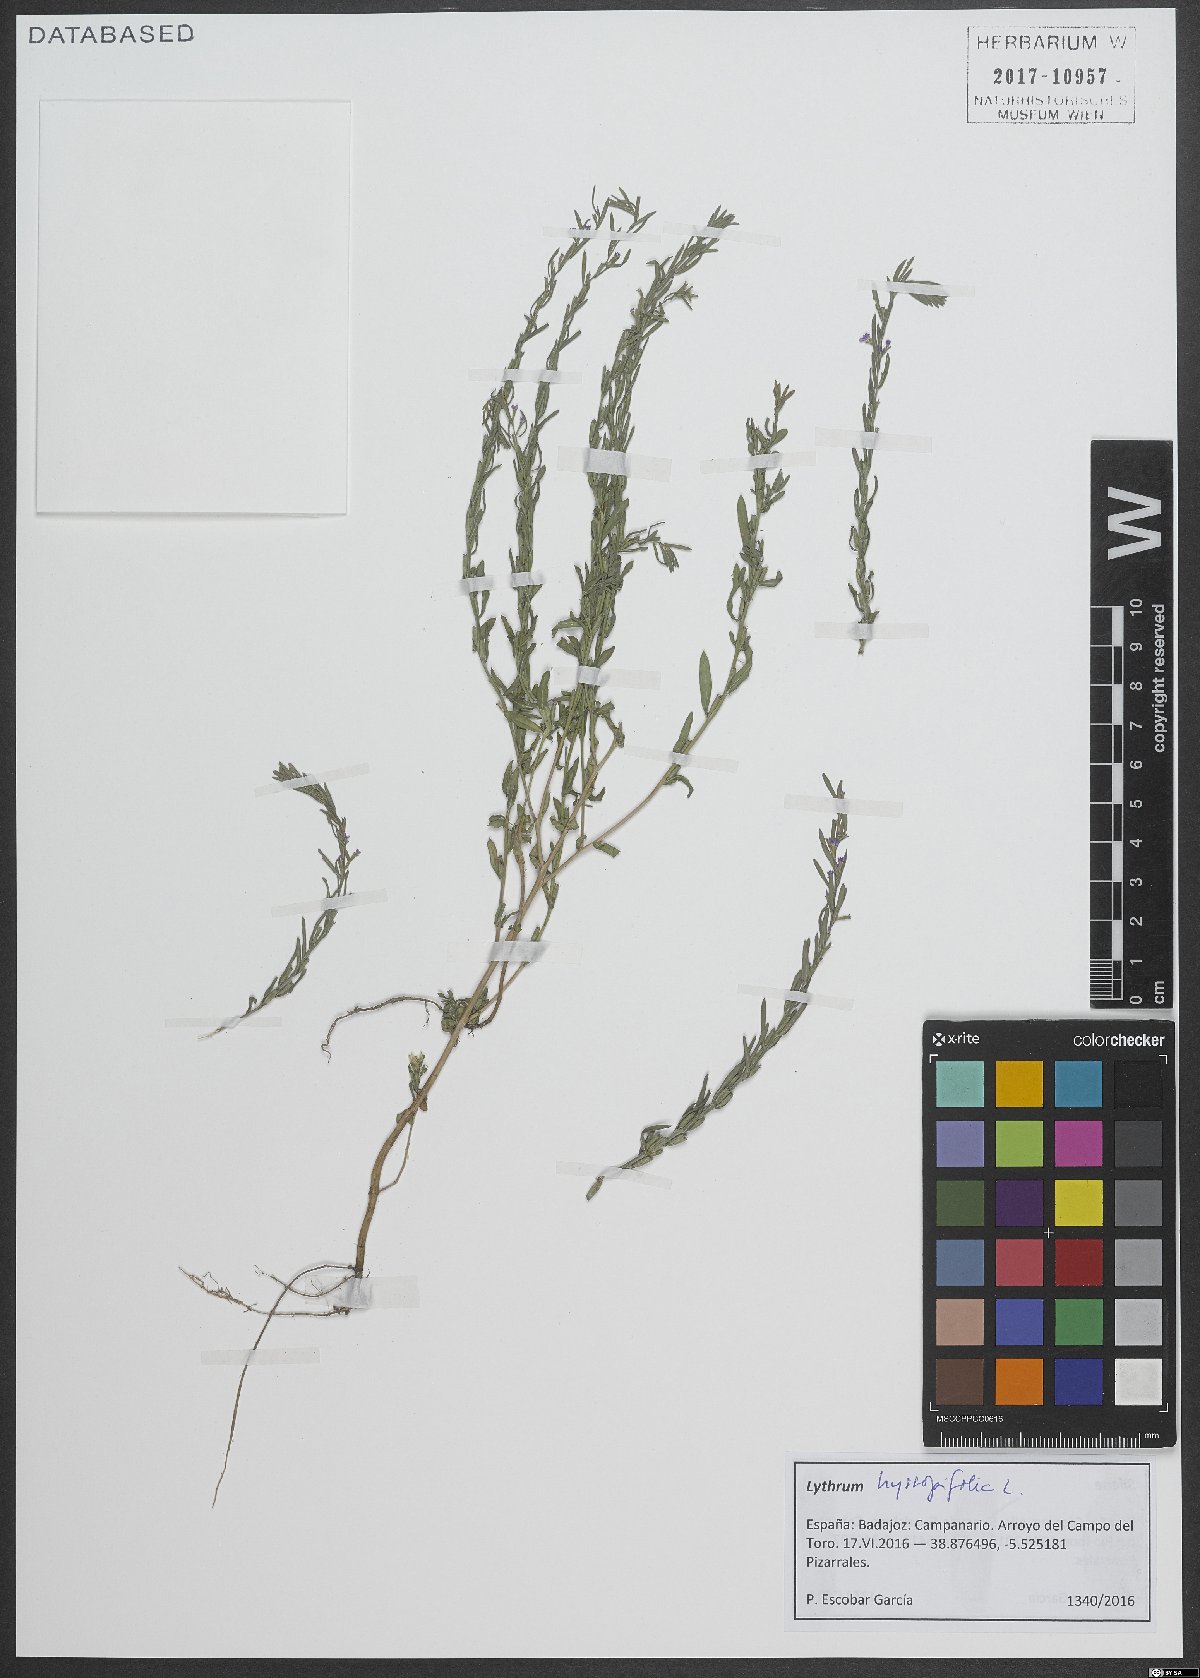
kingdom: Plantae
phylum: Tracheophyta
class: Magnoliopsida
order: Myrtales
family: Lythraceae
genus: Lythrum
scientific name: Lythrum hyssopifolia
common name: Grass-poly
